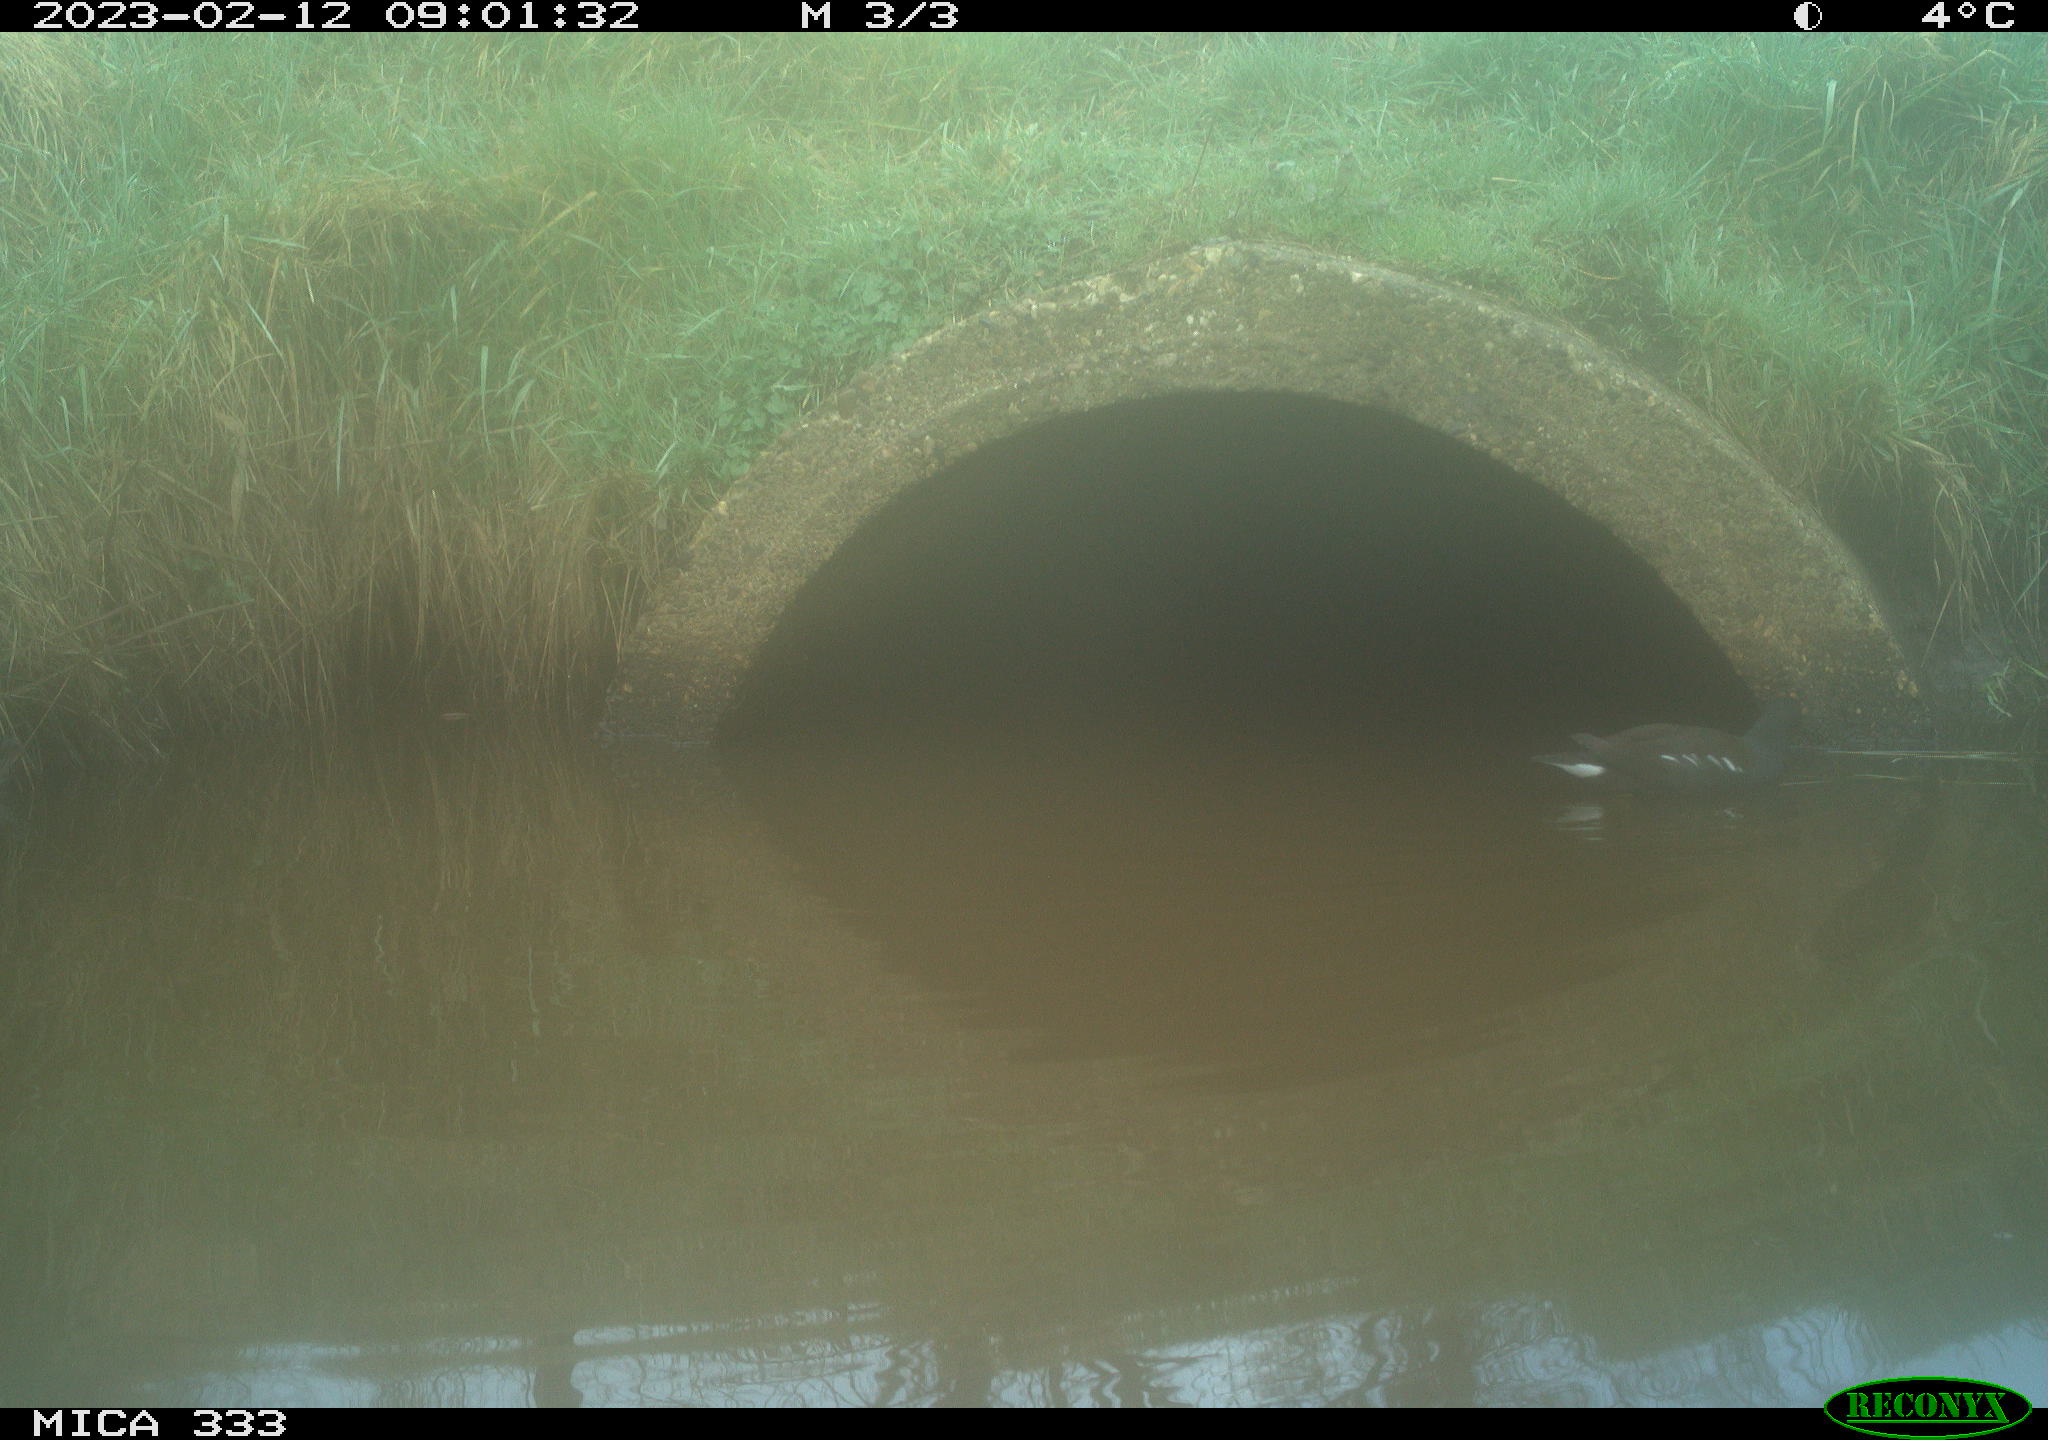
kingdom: Animalia
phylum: Chordata
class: Aves
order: Gruiformes
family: Rallidae
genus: Gallinula
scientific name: Gallinula chloropus
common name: Common moorhen
